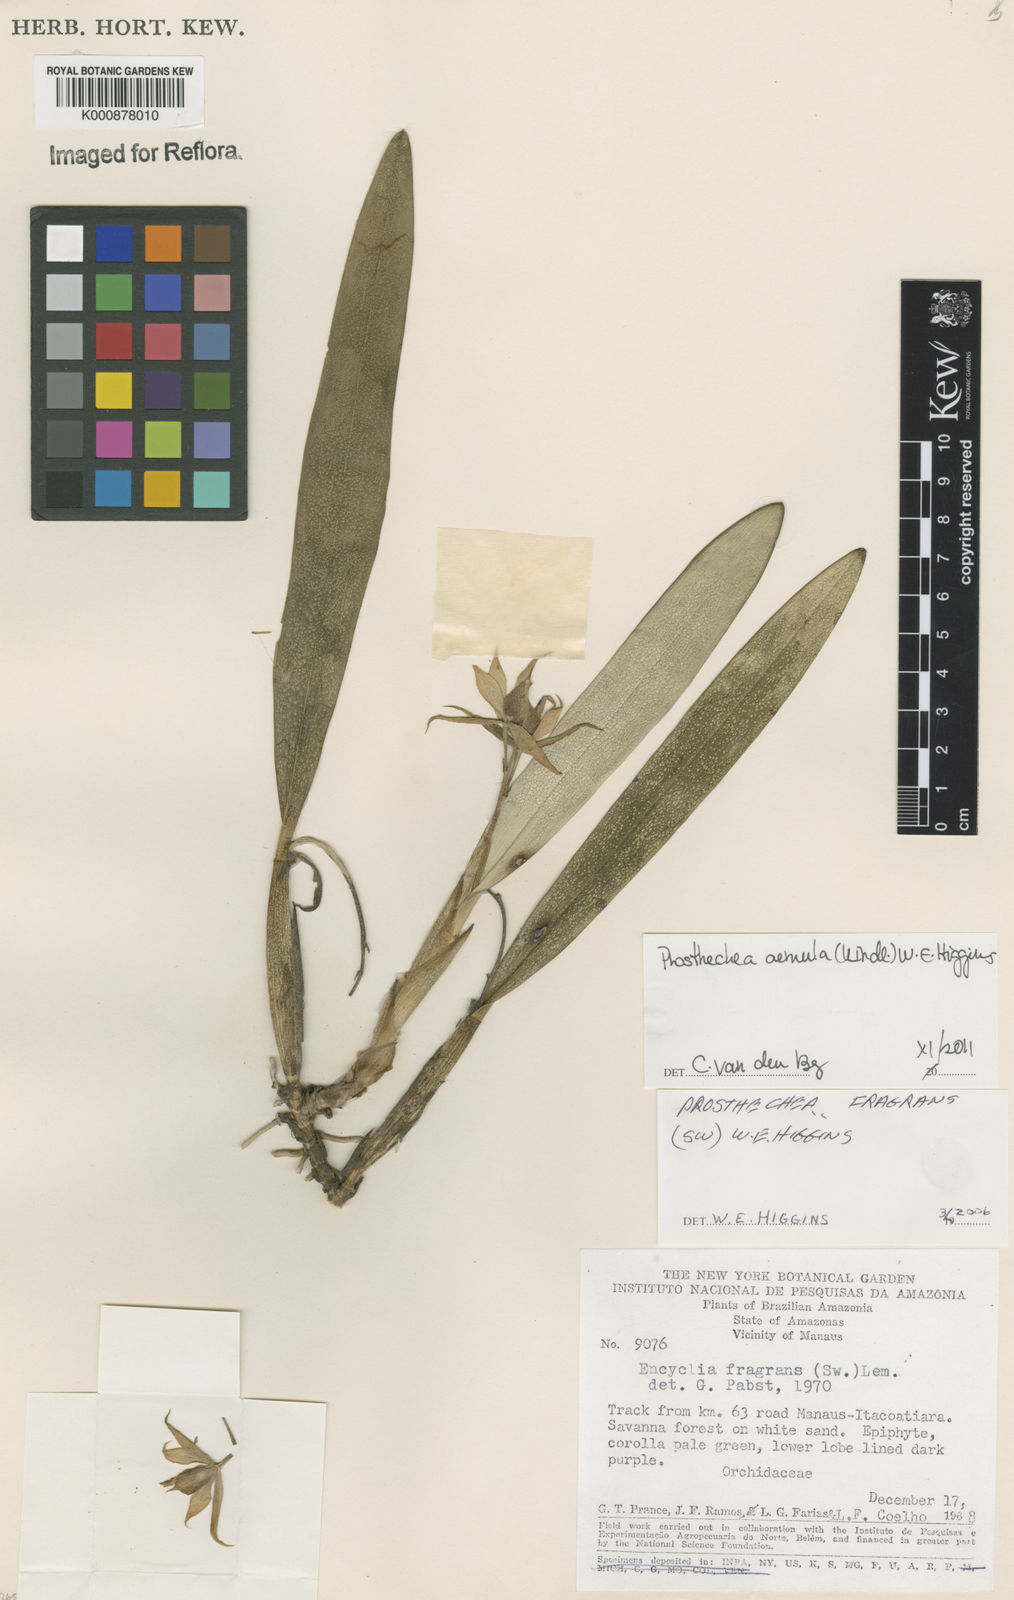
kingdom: Plantae
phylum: Tracheophyta
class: Liliopsida
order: Asparagales
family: Orchidaceae
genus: Prosthechea
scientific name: Prosthechea aemula
